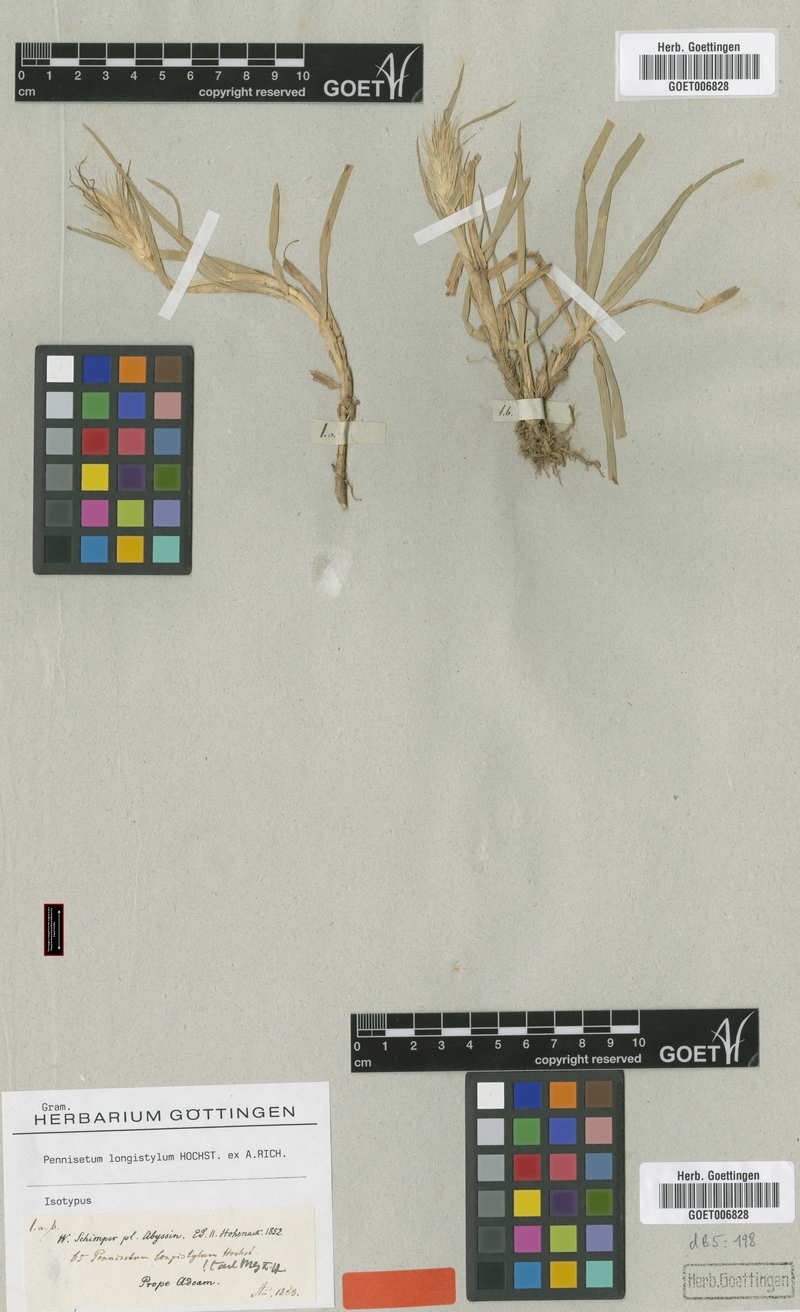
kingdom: Plantae
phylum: Tracheophyta
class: Liliopsida
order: Poales
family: Poaceae
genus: Cenchrus
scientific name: Cenchrus longistylus
